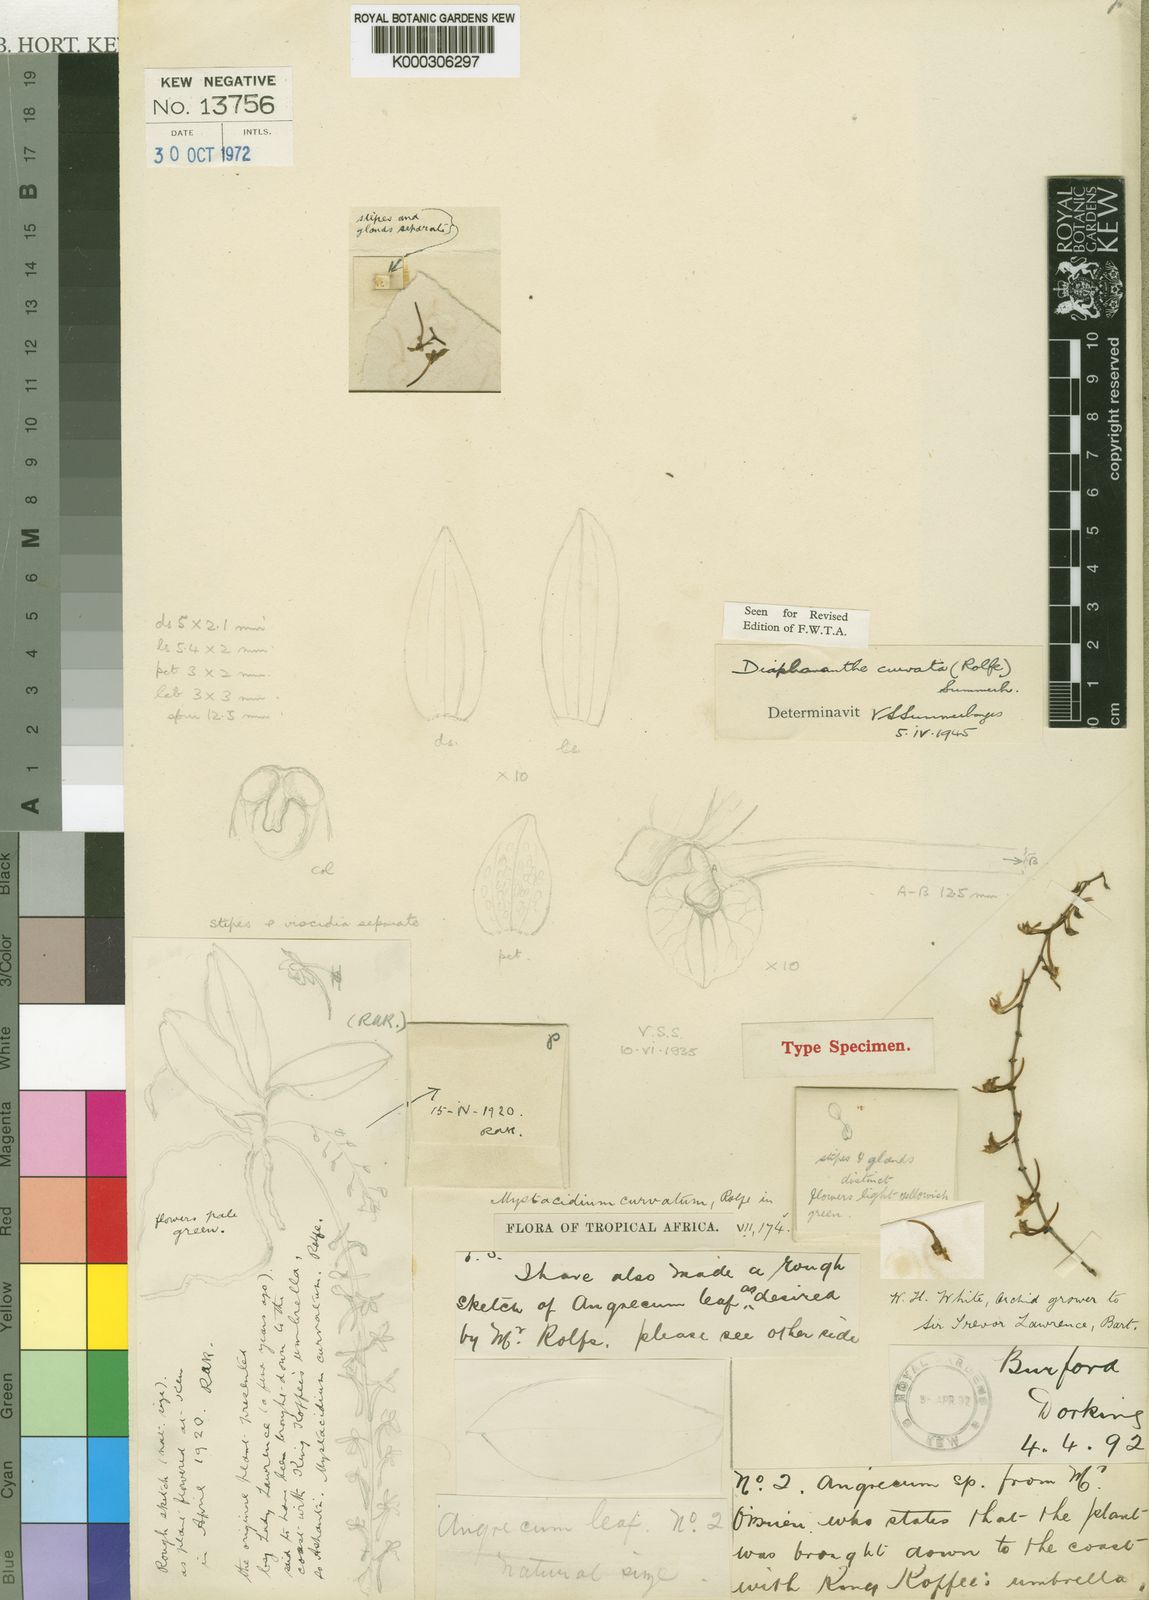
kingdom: Plantae
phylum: Tracheophyta
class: Liliopsida
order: Asparagales
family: Orchidaceae
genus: Rhipidoglossum
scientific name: Rhipidoglossum curvatum
